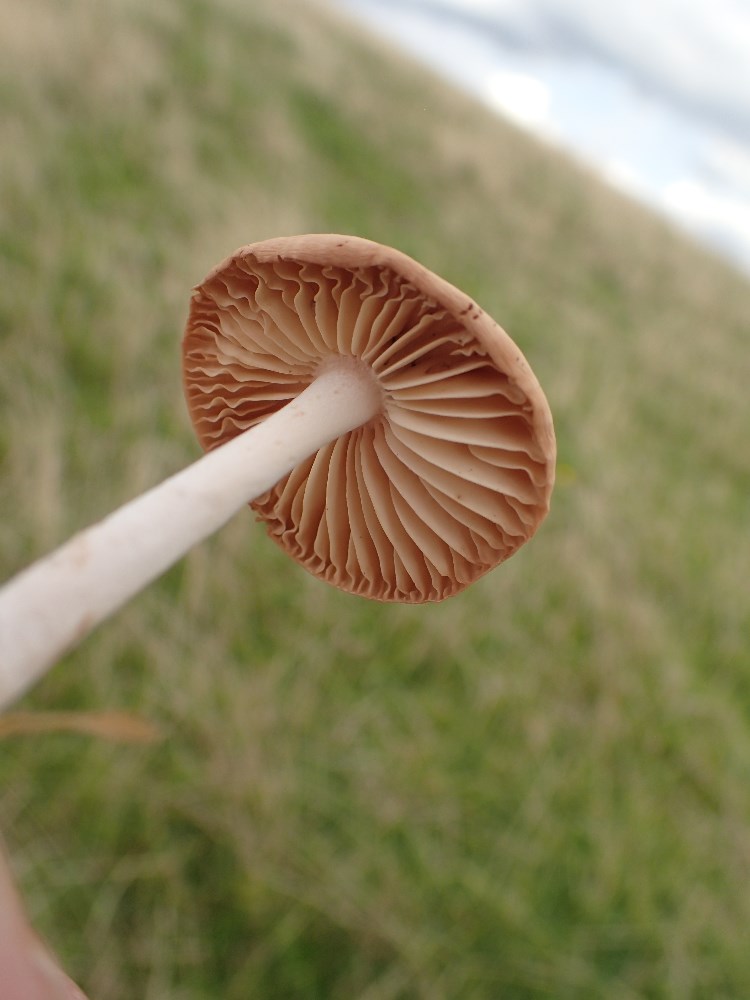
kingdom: Fungi
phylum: Basidiomycota
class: Agaricomycetes
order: Agaricales
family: Marasmiaceae
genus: Marasmius
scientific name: Marasmius oreades
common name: elledans-bruskhat
